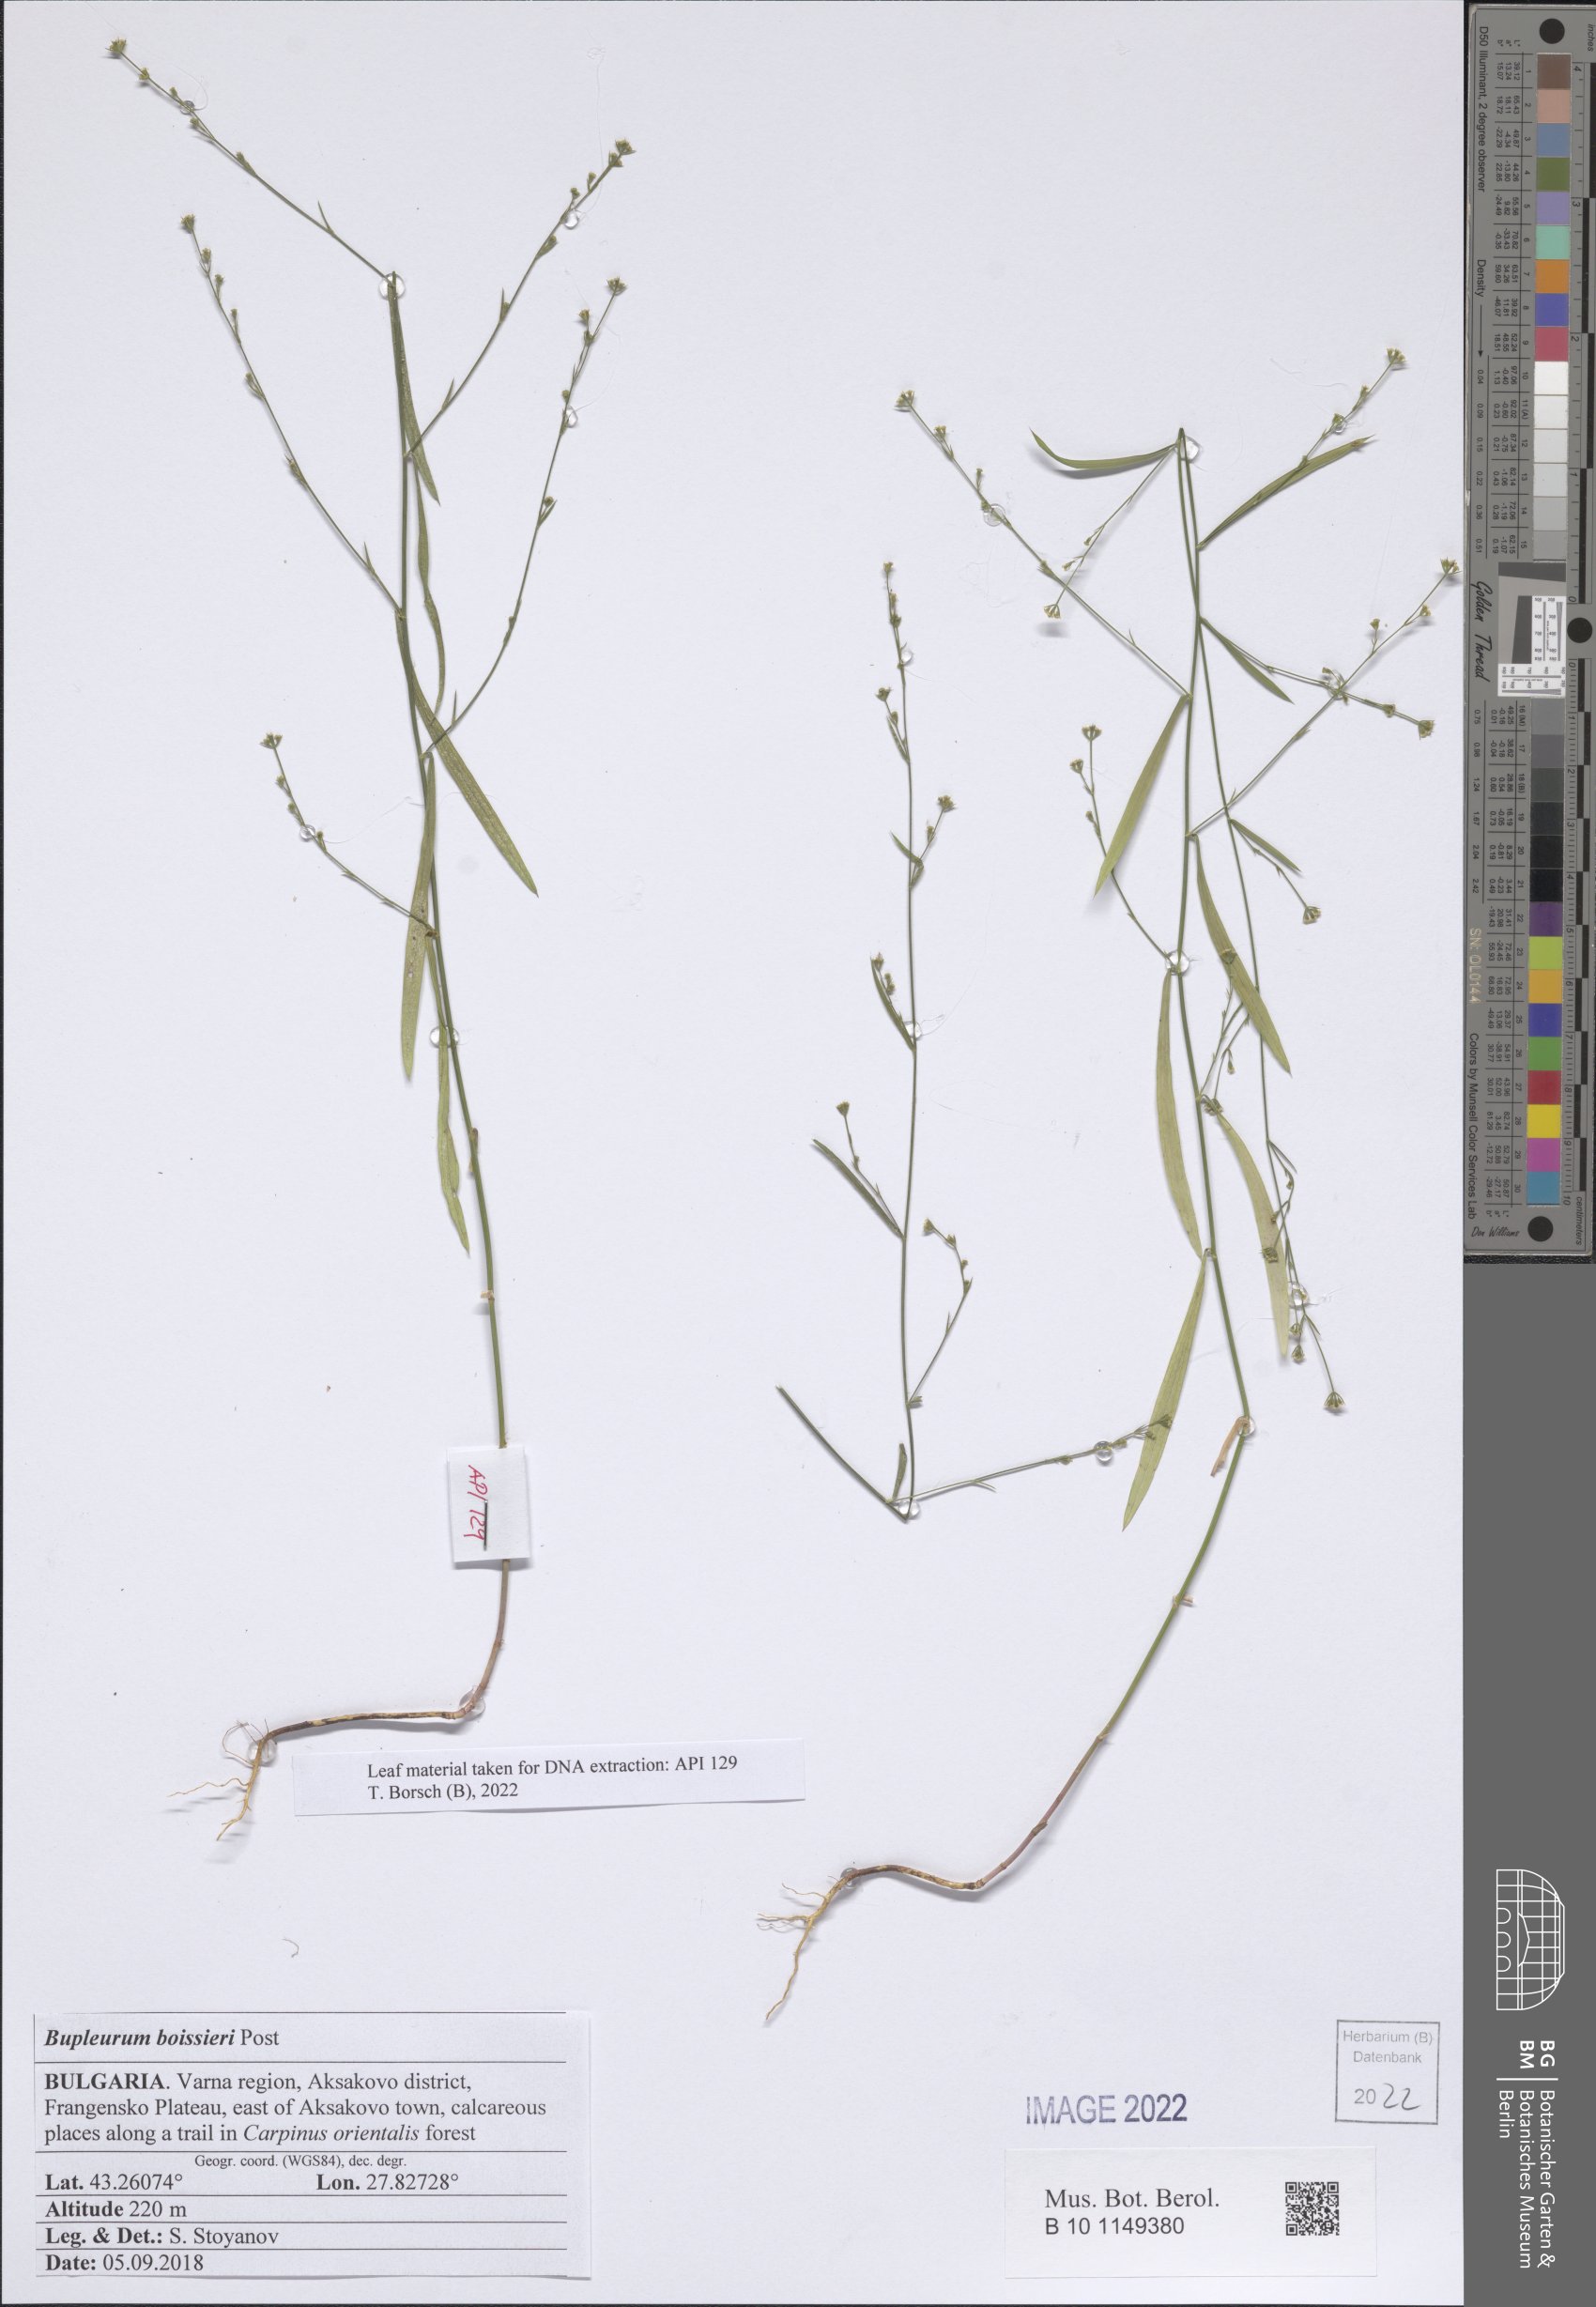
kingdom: Plantae
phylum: Tracheophyta
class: Magnoliopsida
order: Apiales
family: Apiaceae
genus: Bupleurum
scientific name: Bupleurum boissieri
